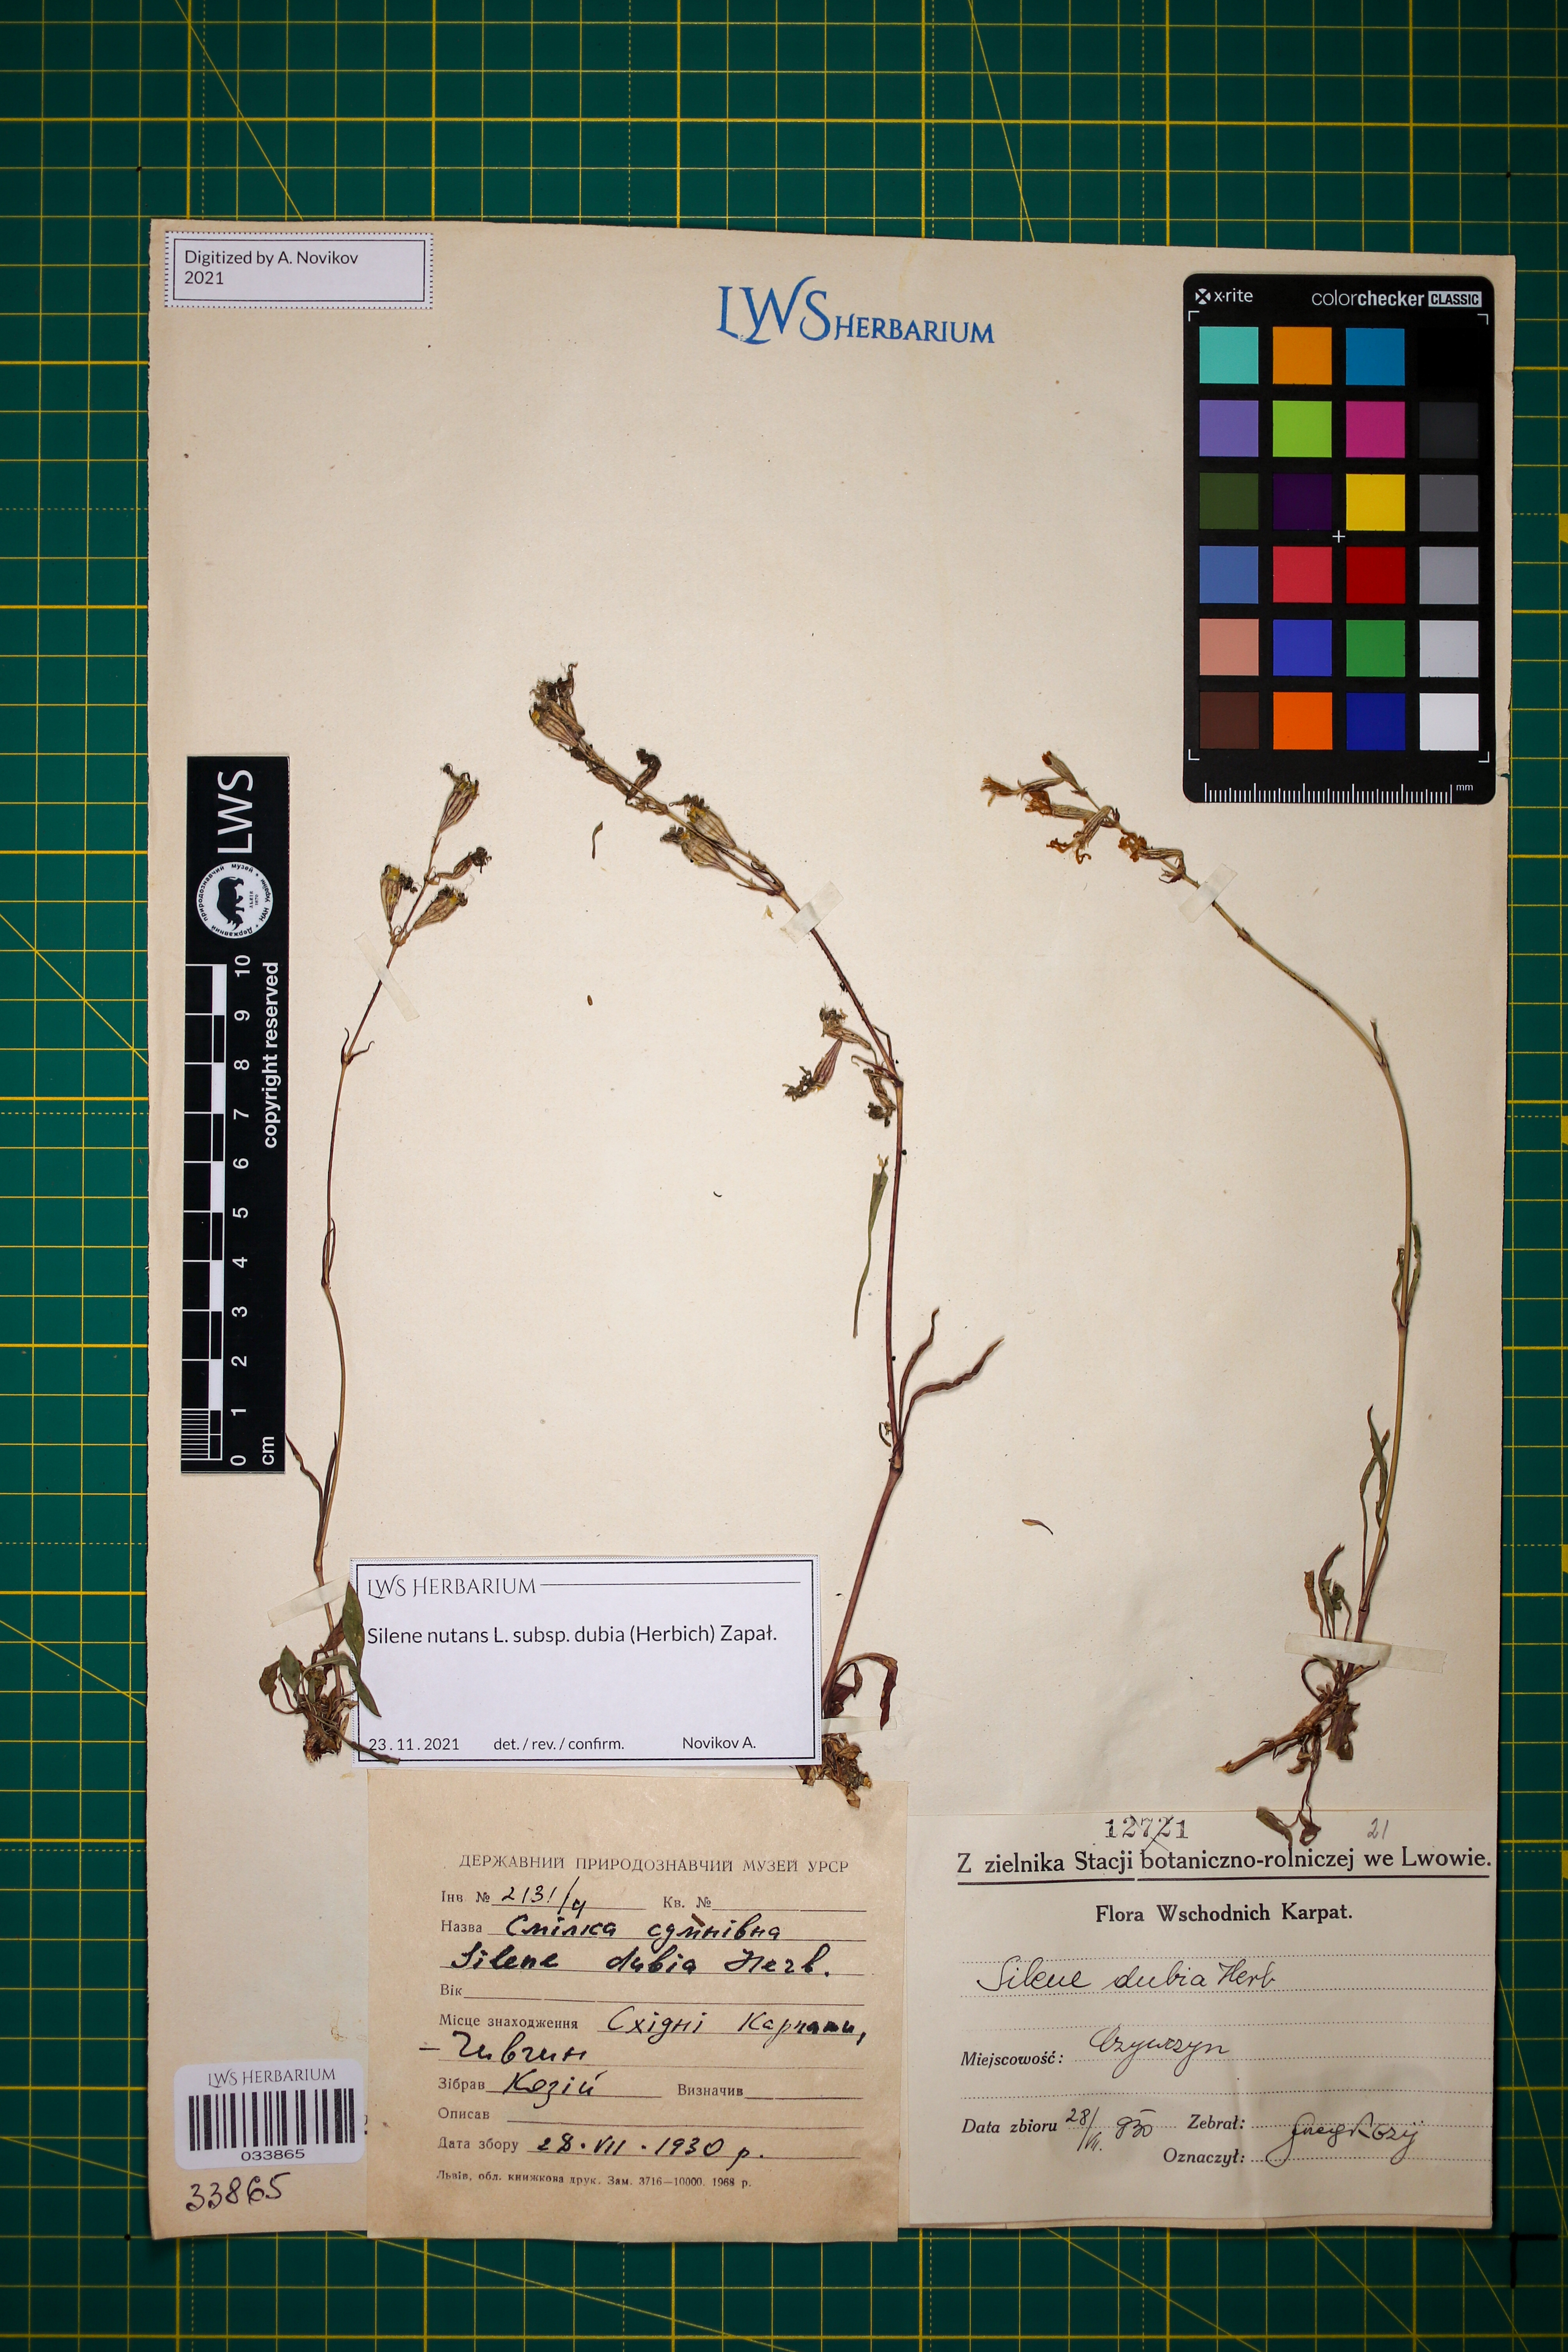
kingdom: Plantae
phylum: Tracheophyta
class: Magnoliopsida
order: Caryophyllales
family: Caryophyllaceae
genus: Silene
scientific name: Silene nutans
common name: Nottingham catchfly
